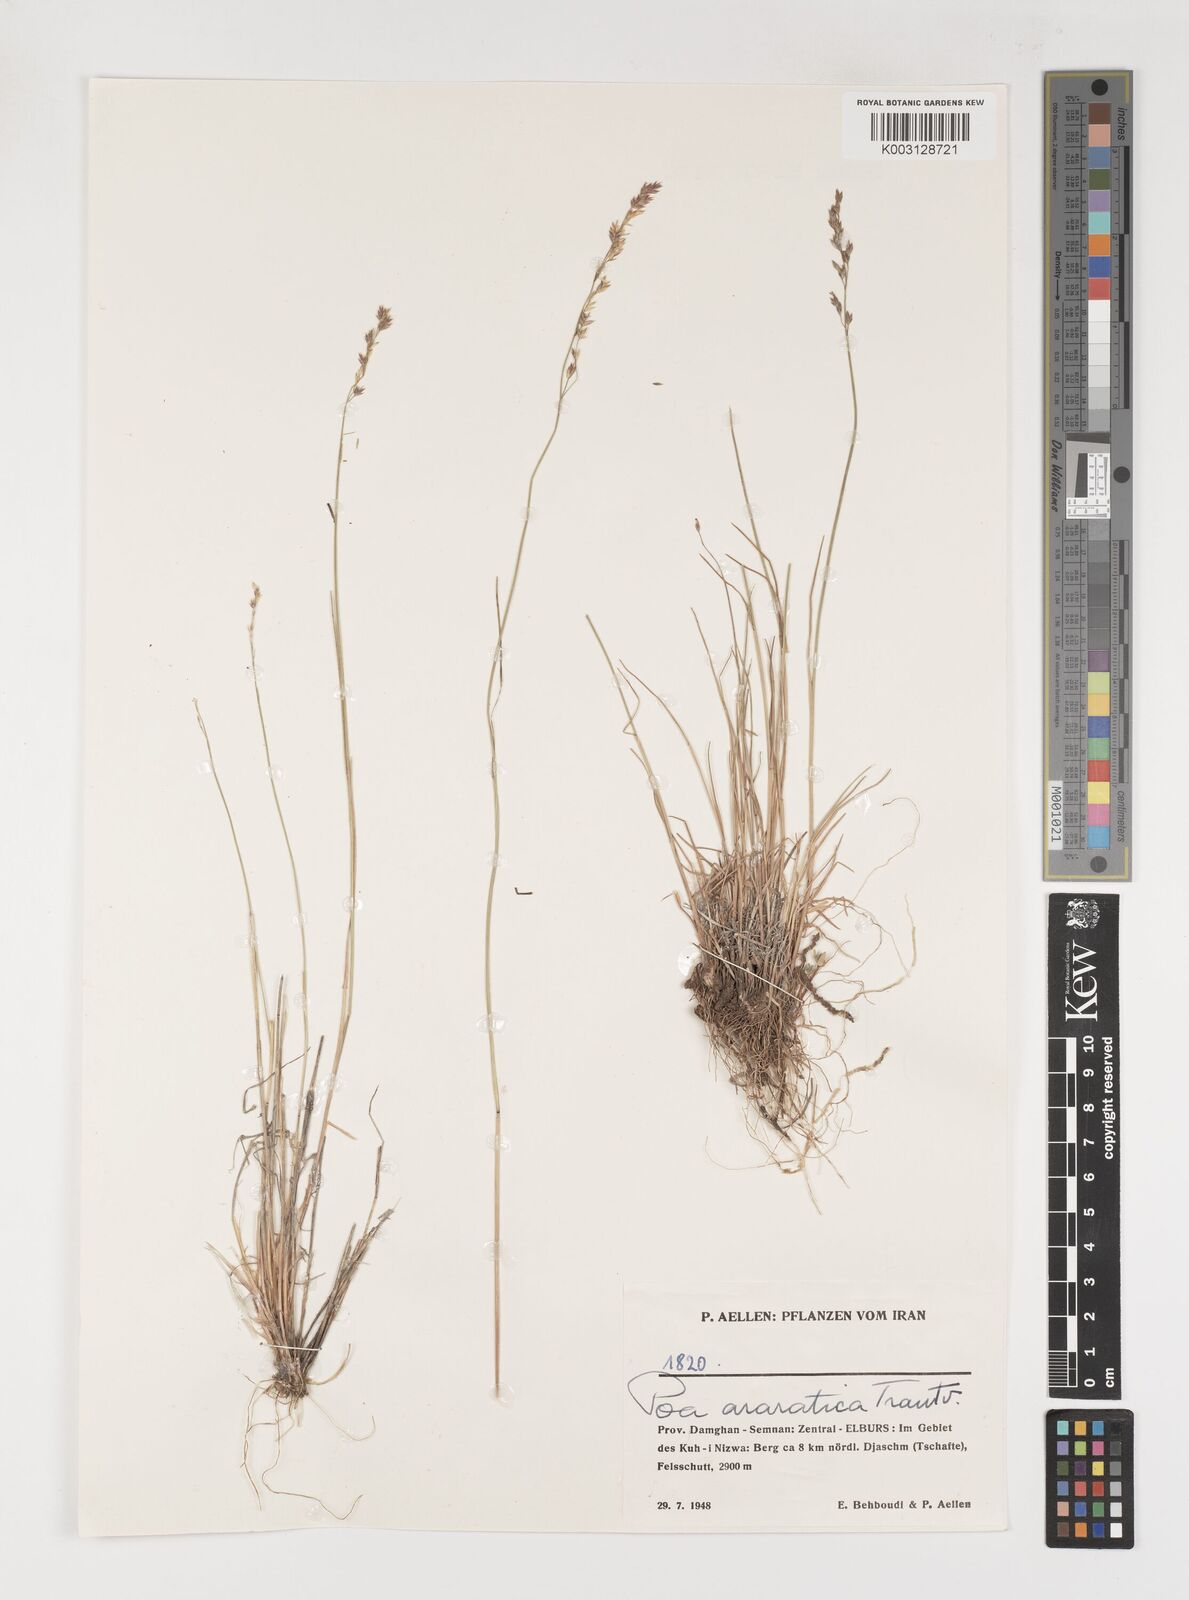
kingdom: Plantae
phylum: Tracheophyta
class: Liliopsida
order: Poales
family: Poaceae
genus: Poa
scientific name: Poa araratica
